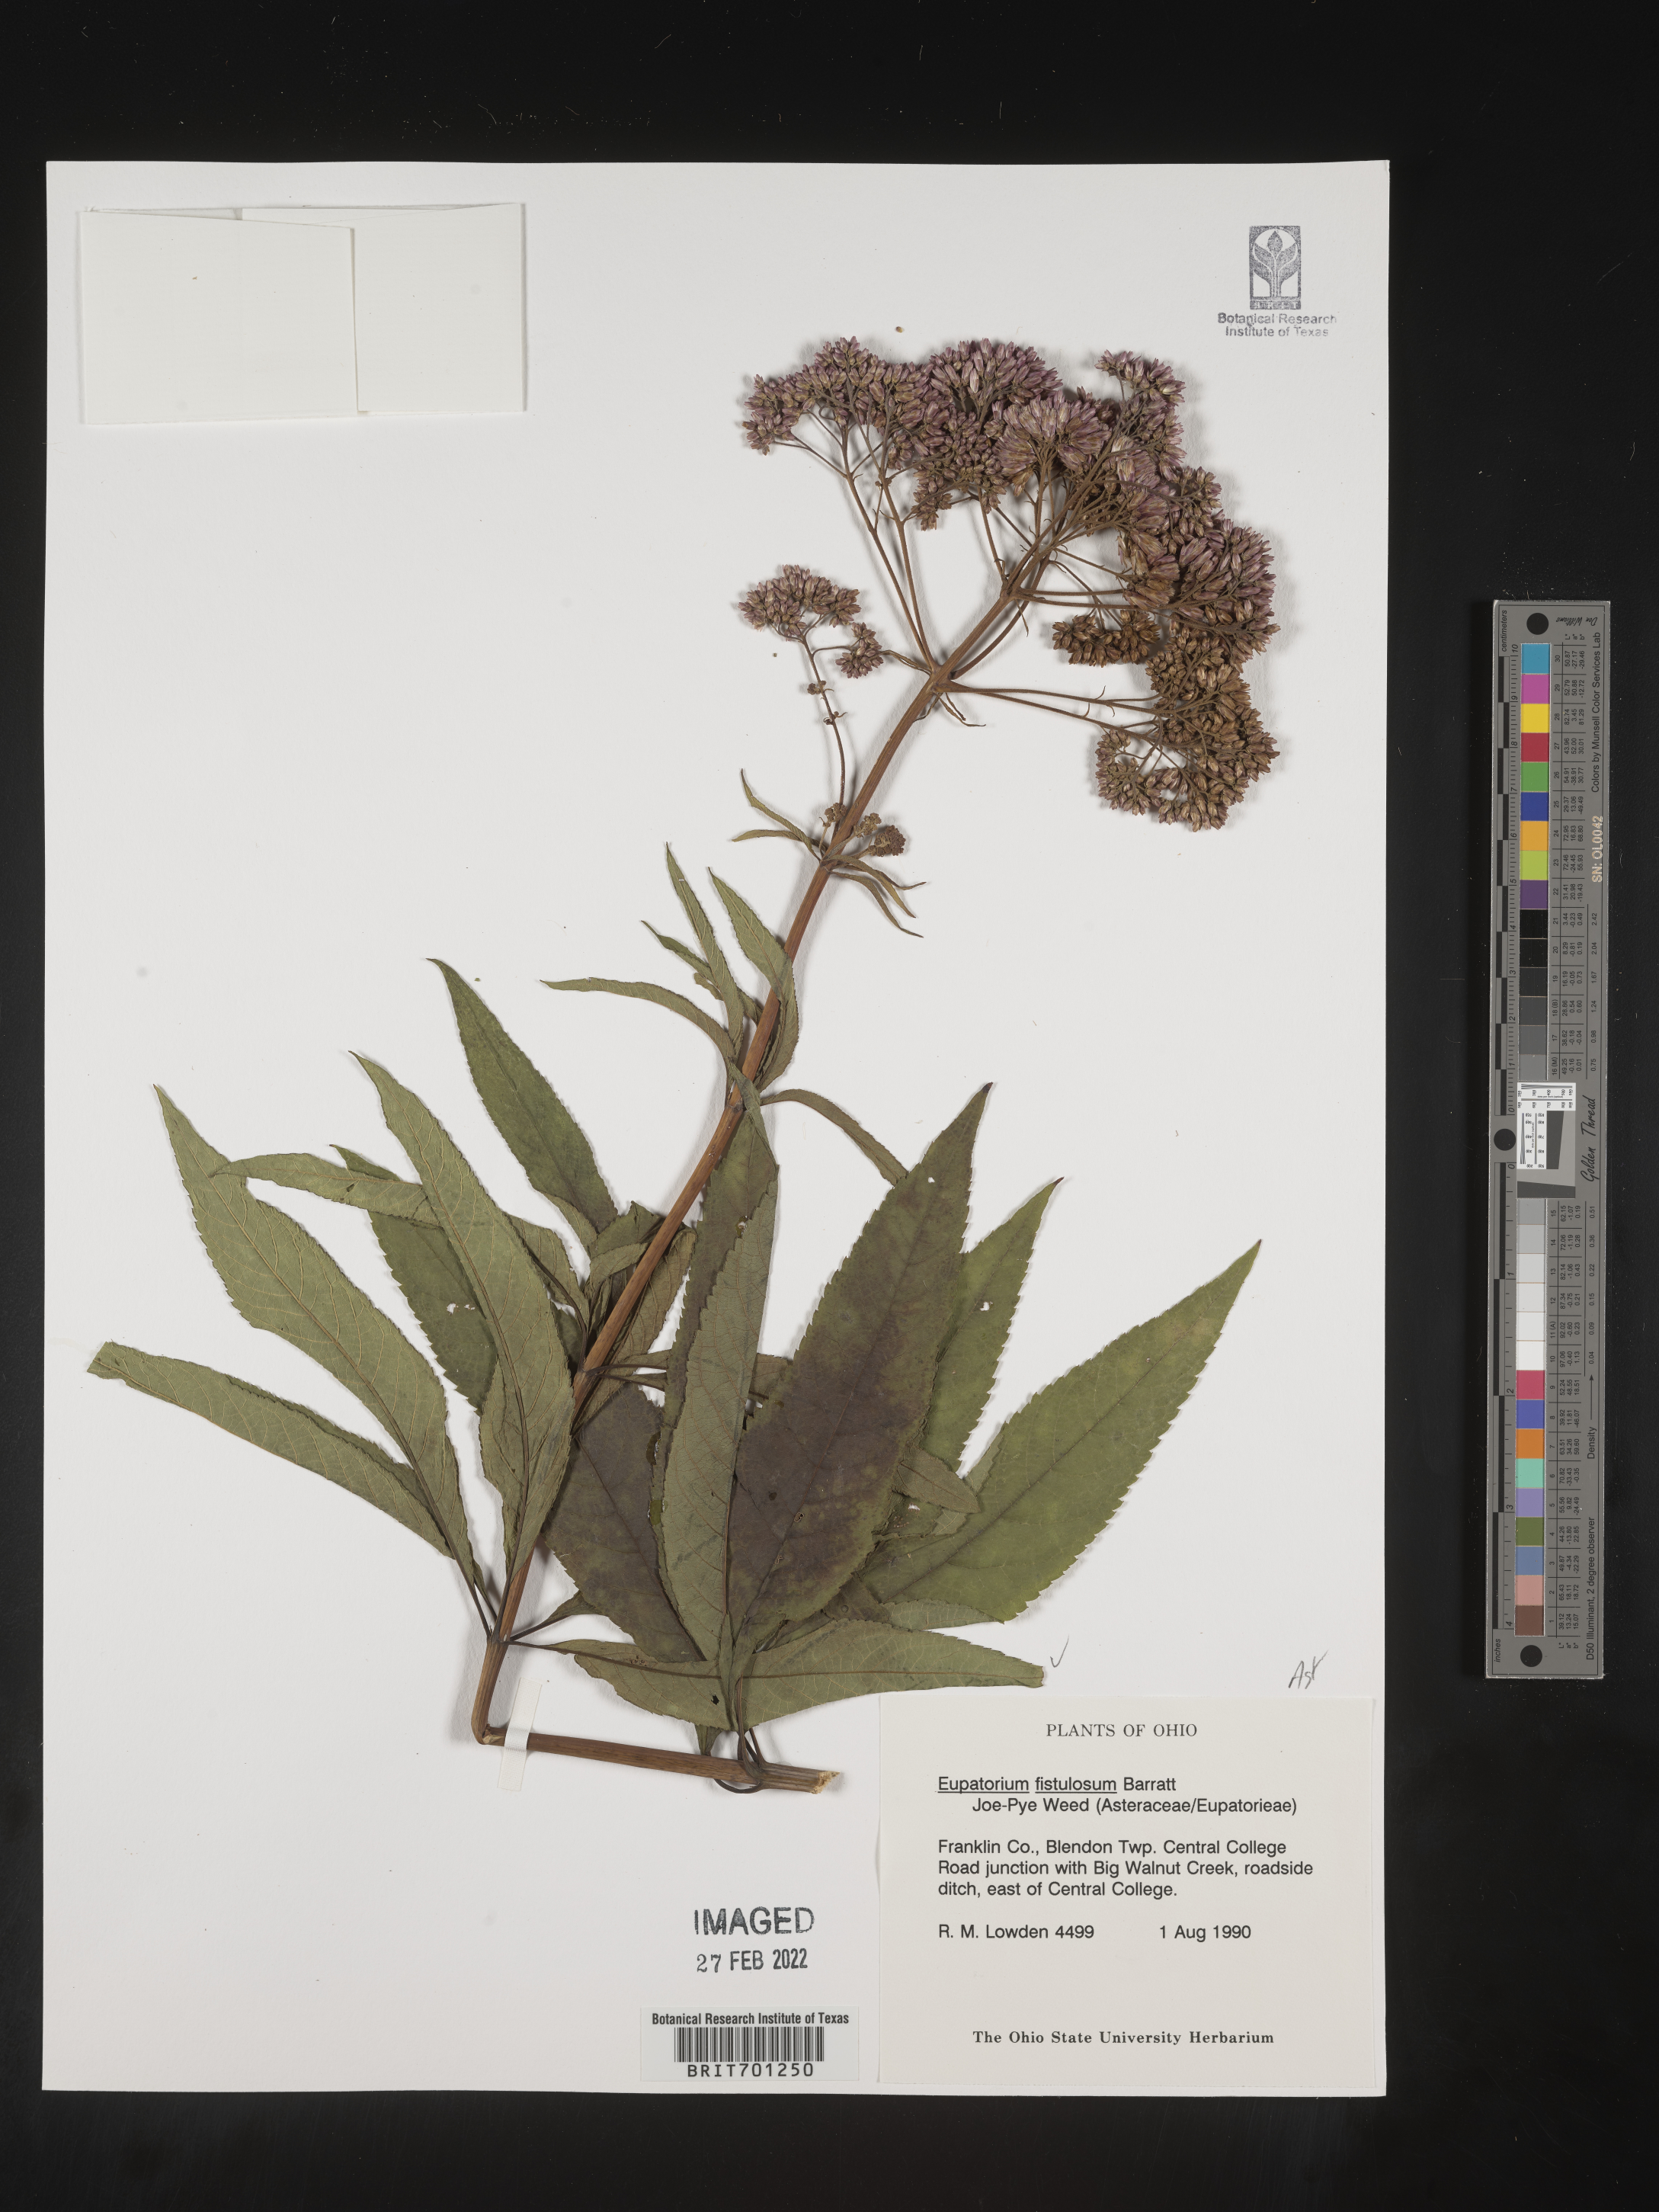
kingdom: Plantae
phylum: Tracheophyta
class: Magnoliopsida
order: Asterales
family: Asteraceae
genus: Eutrochium
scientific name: Eutrochium fistulosum
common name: Trumpetweed
